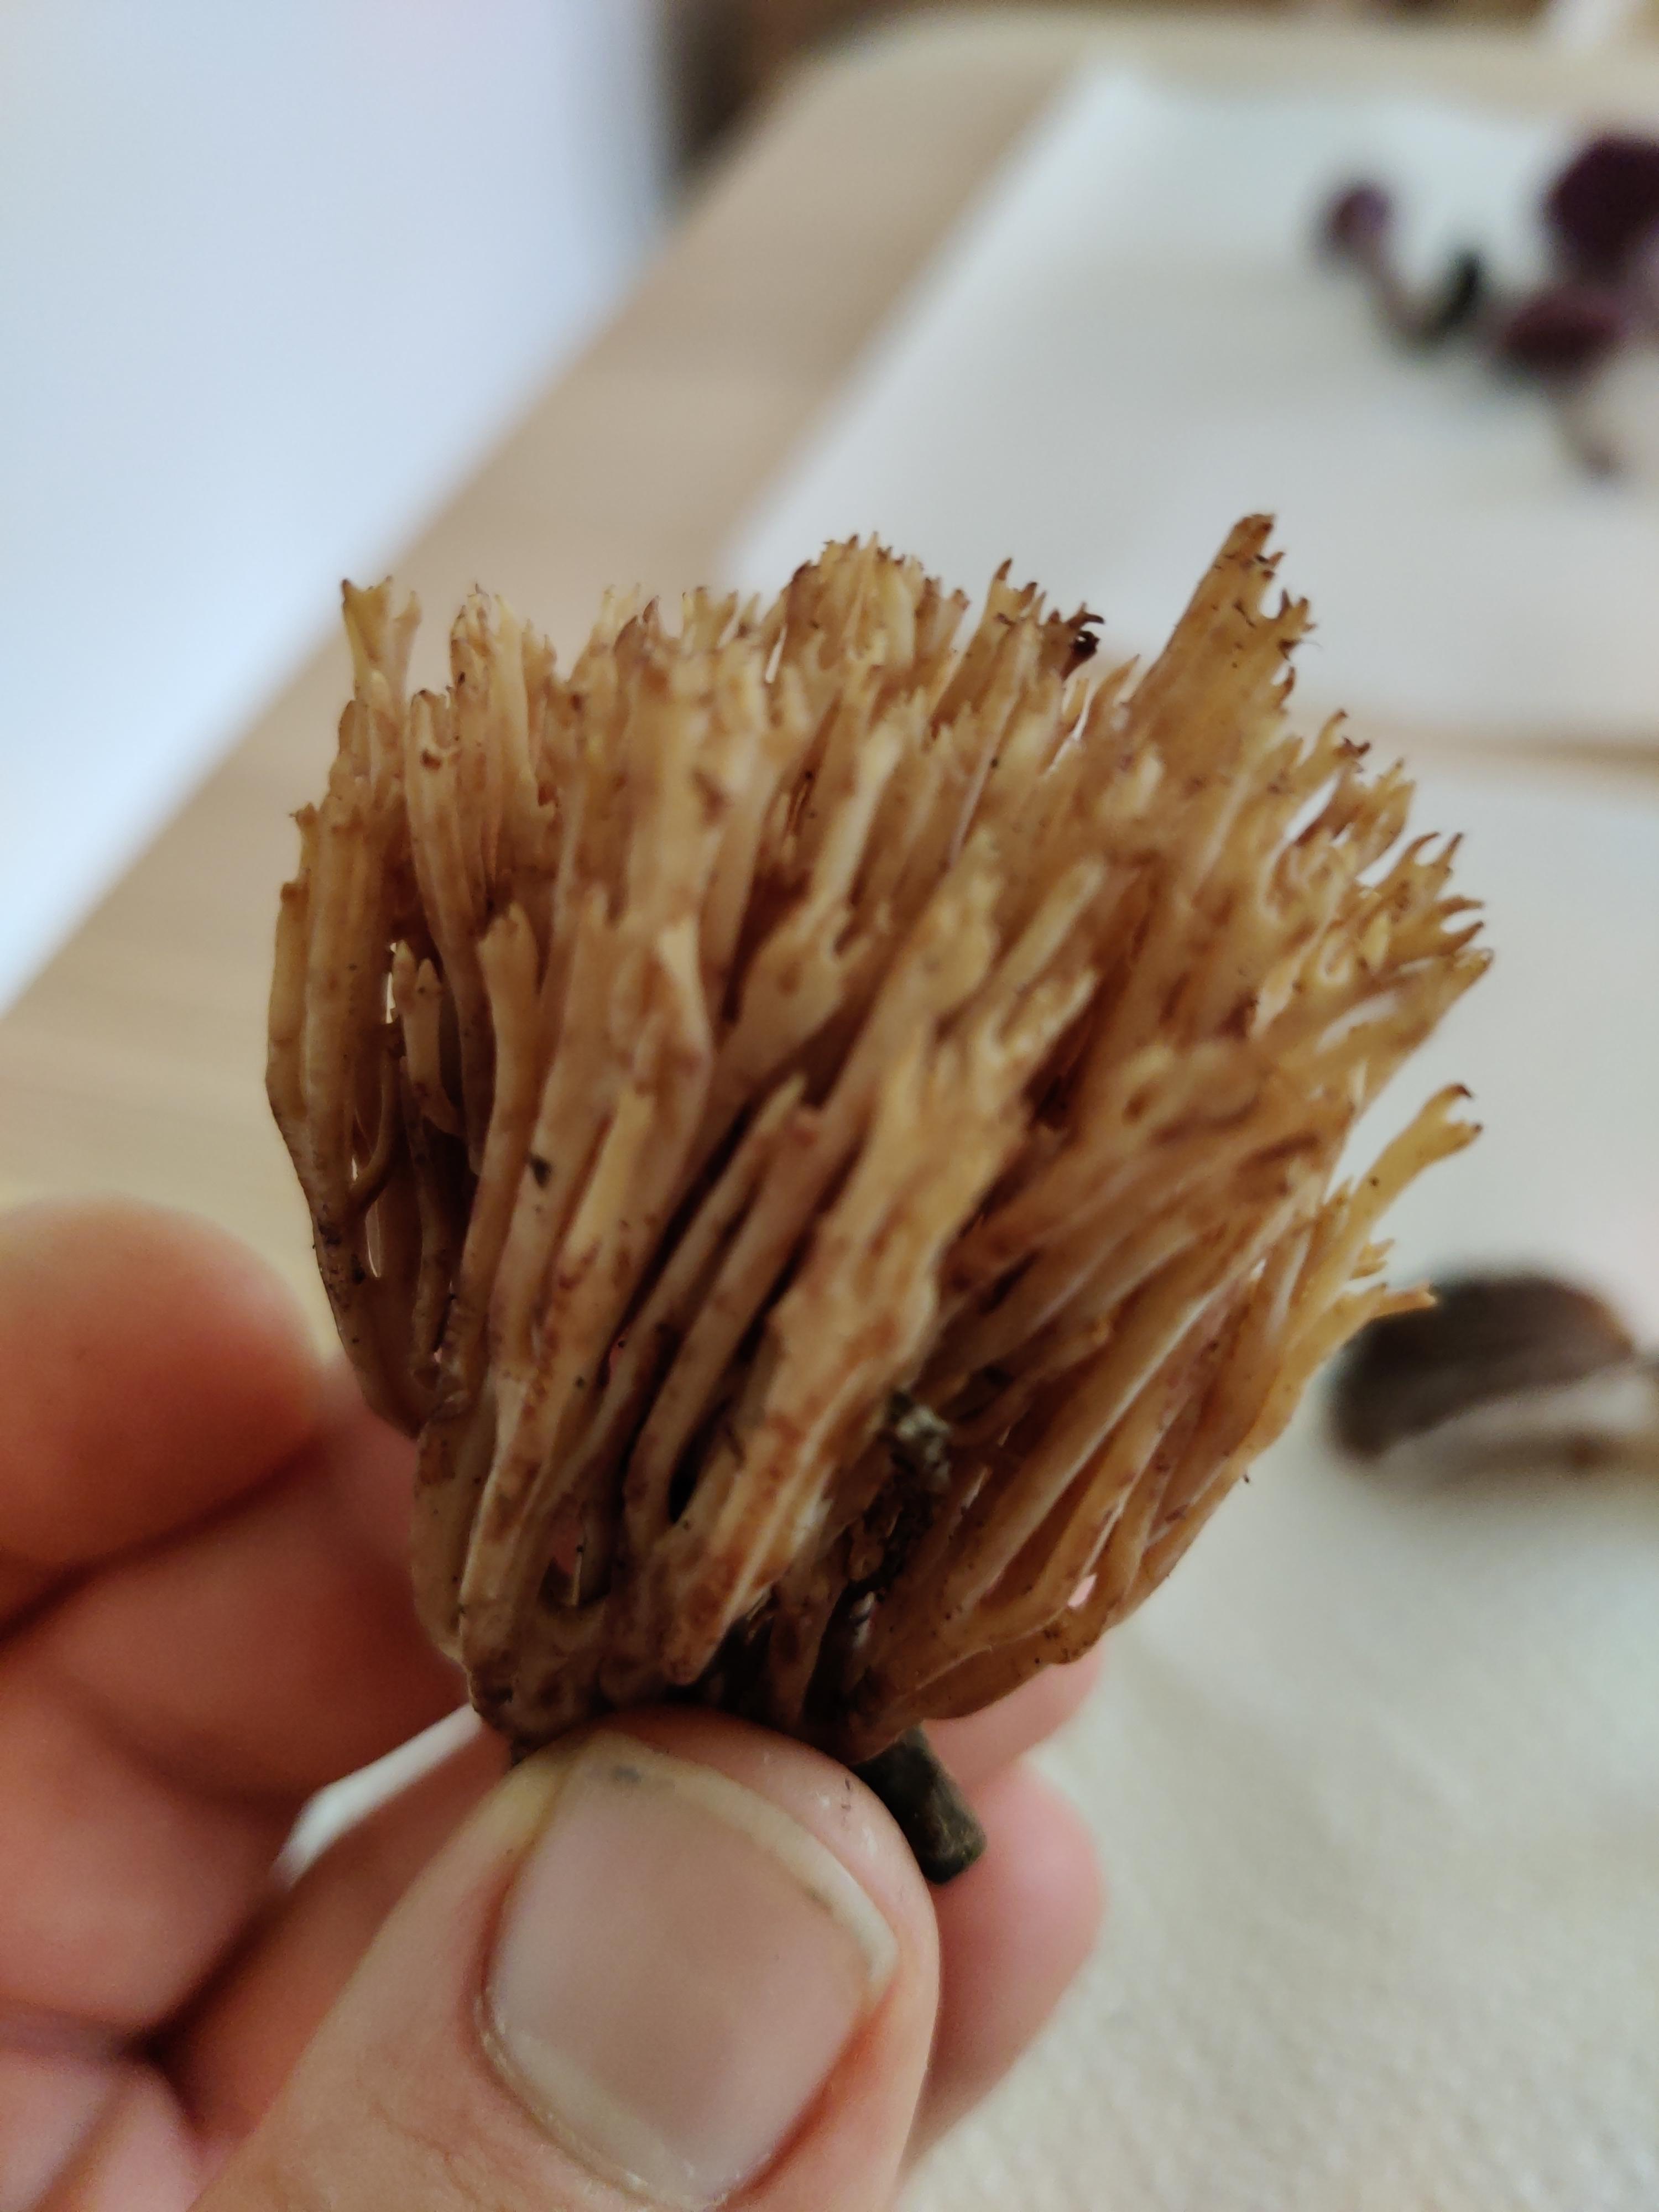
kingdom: Fungi
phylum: Basidiomycota
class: Agaricomycetes
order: Gomphales
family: Gomphaceae
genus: Ramaria
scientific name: Ramaria stricta
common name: rank koralsvamp
